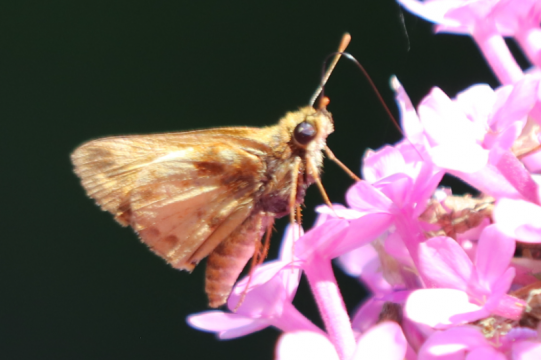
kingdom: Animalia
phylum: Arthropoda
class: Insecta
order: Lepidoptera
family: Hesperiidae
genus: Lon
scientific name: Lon zabulon
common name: Zabulon Skipper
